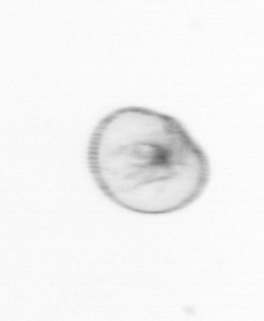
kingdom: Chromista
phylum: Myzozoa
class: Dinophyceae
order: Noctilucales
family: Noctilucaceae
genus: Noctiluca
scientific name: Noctiluca scintillans
